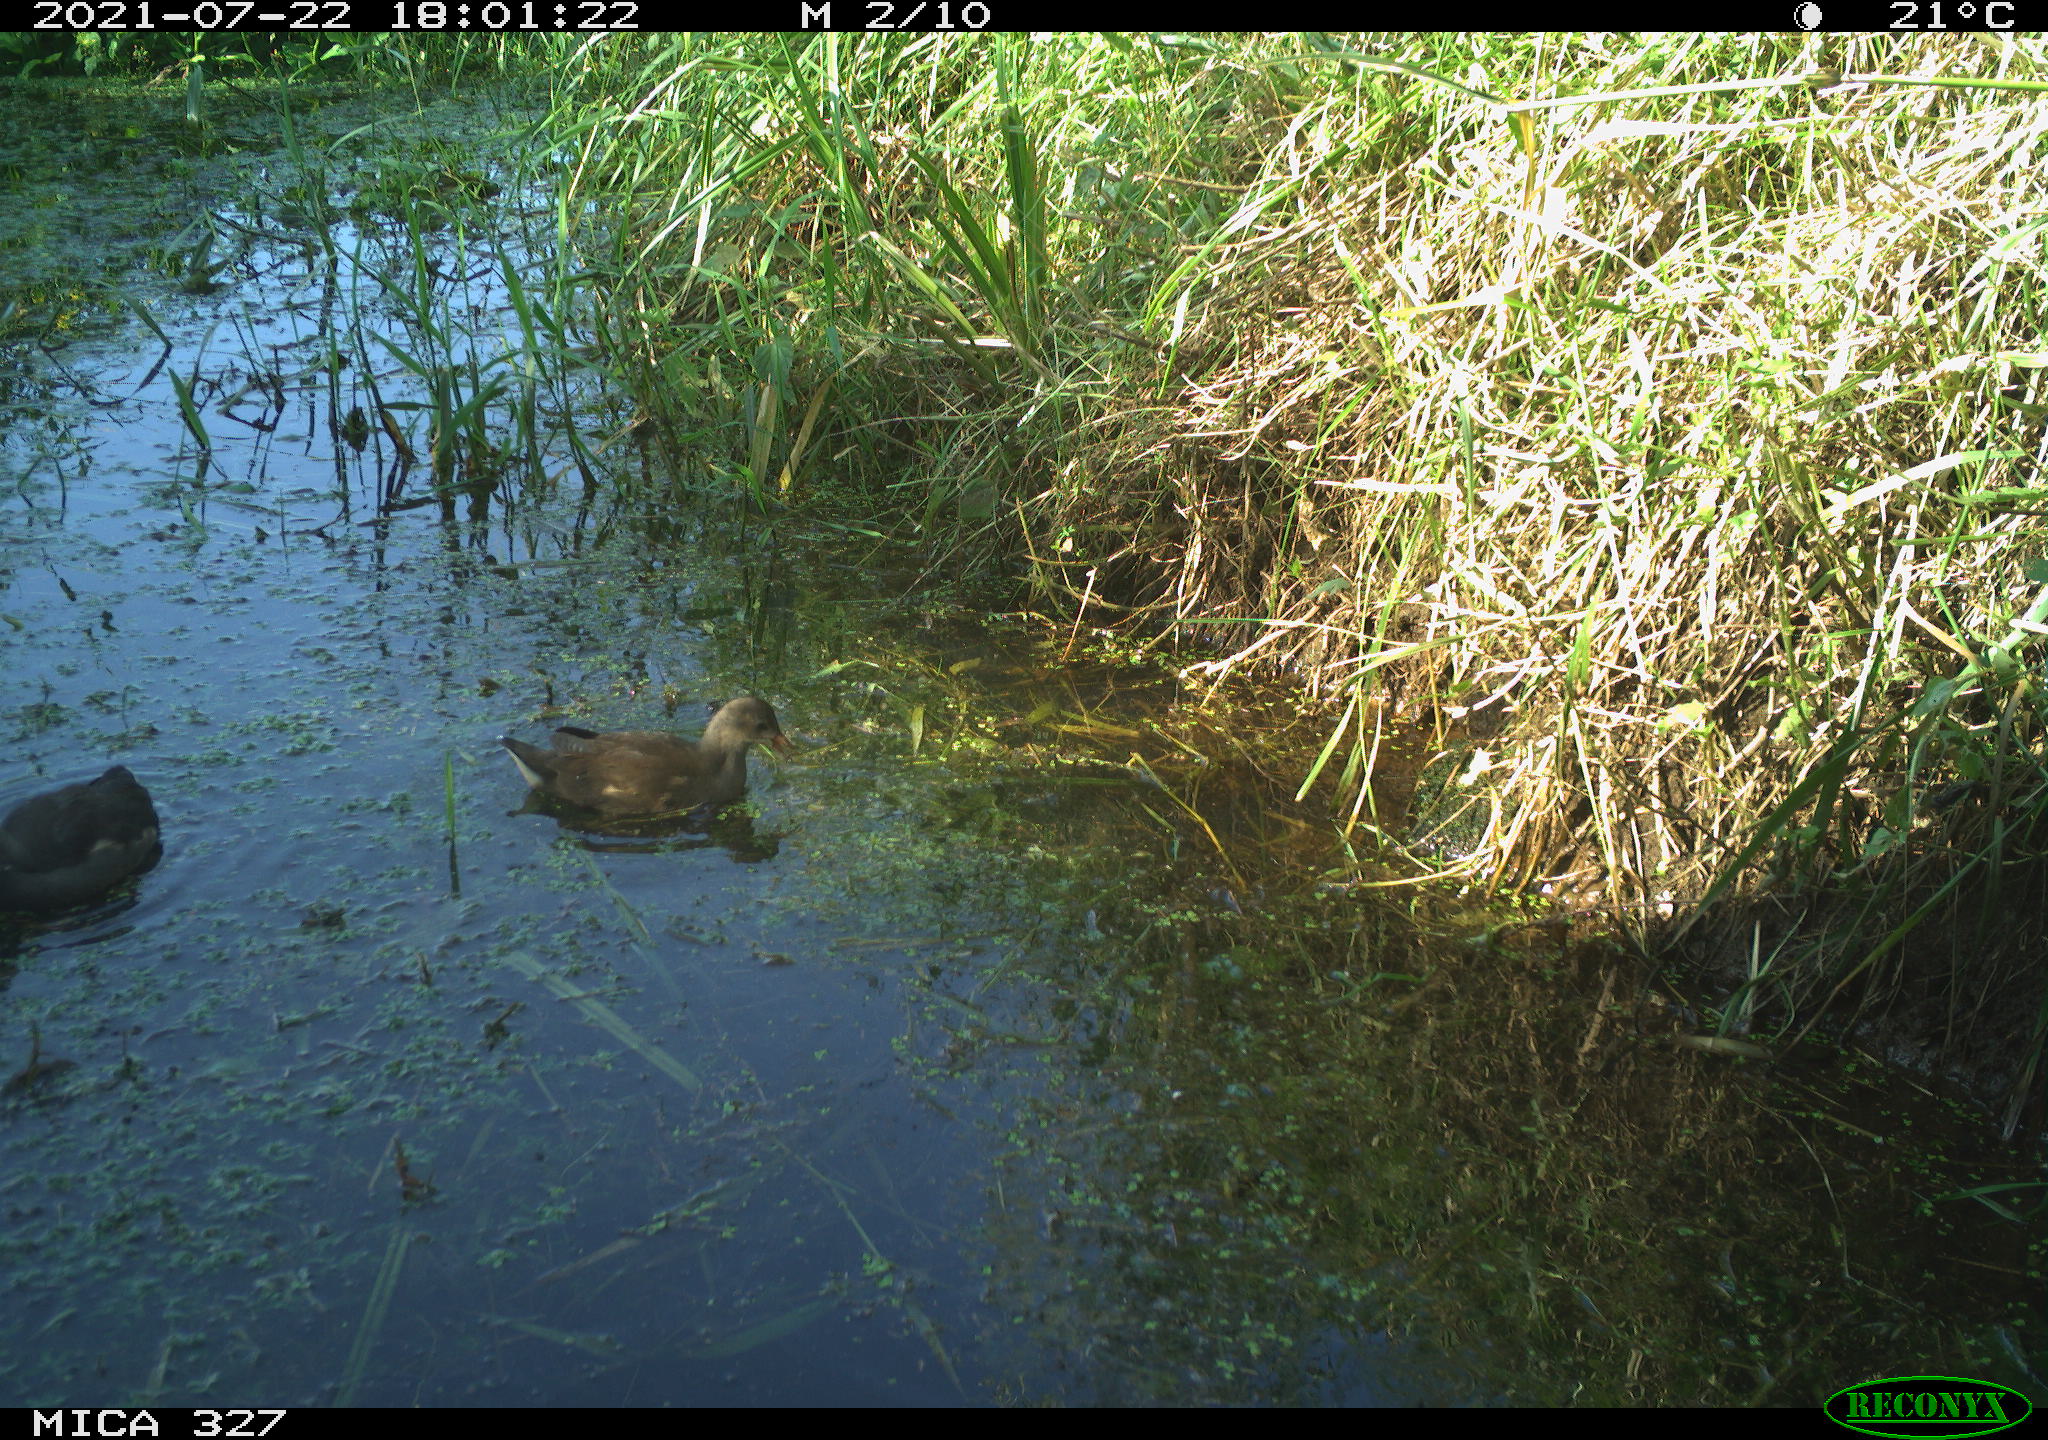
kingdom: Animalia
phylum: Chordata
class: Aves
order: Gruiformes
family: Rallidae
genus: Gallinula
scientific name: Gallinula chloropus
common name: Common moorhen
